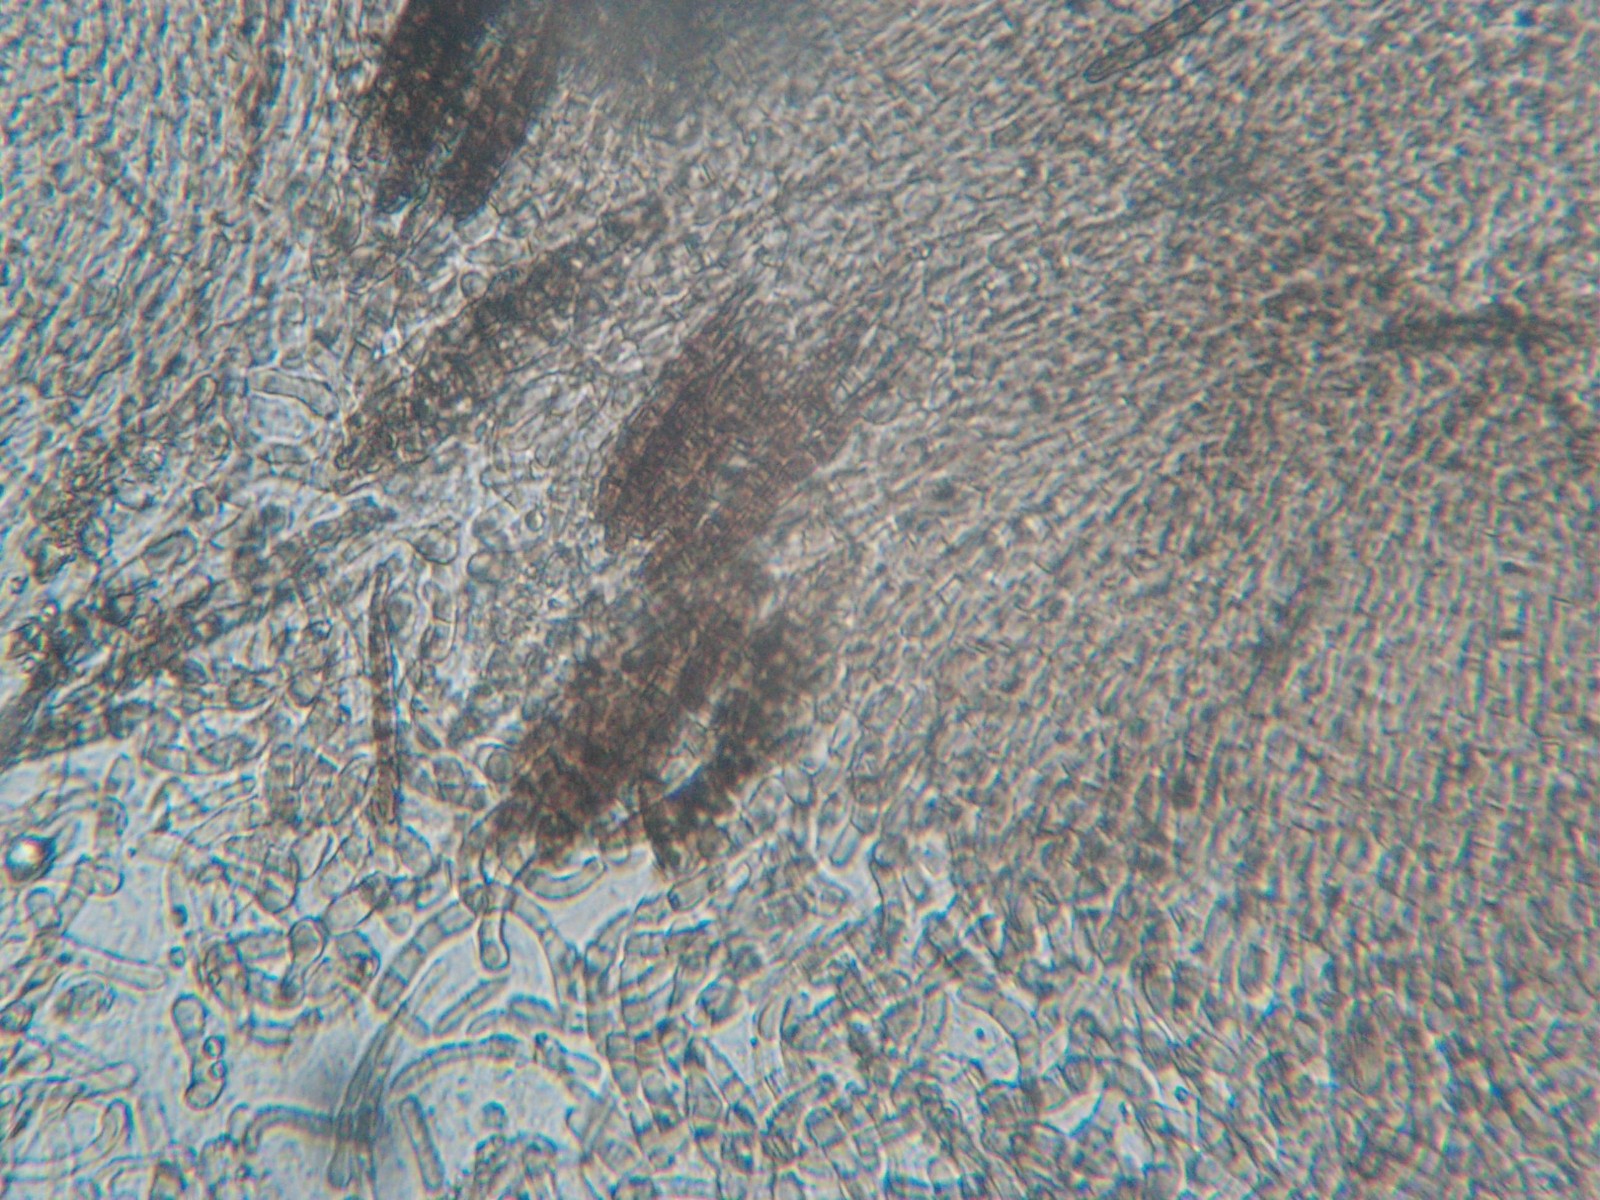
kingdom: Fungi
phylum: Ascomycota
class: Geoglossomycetes
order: Geoglossales
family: Geoglossaceae
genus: Geoglossum
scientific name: Geoglossum
